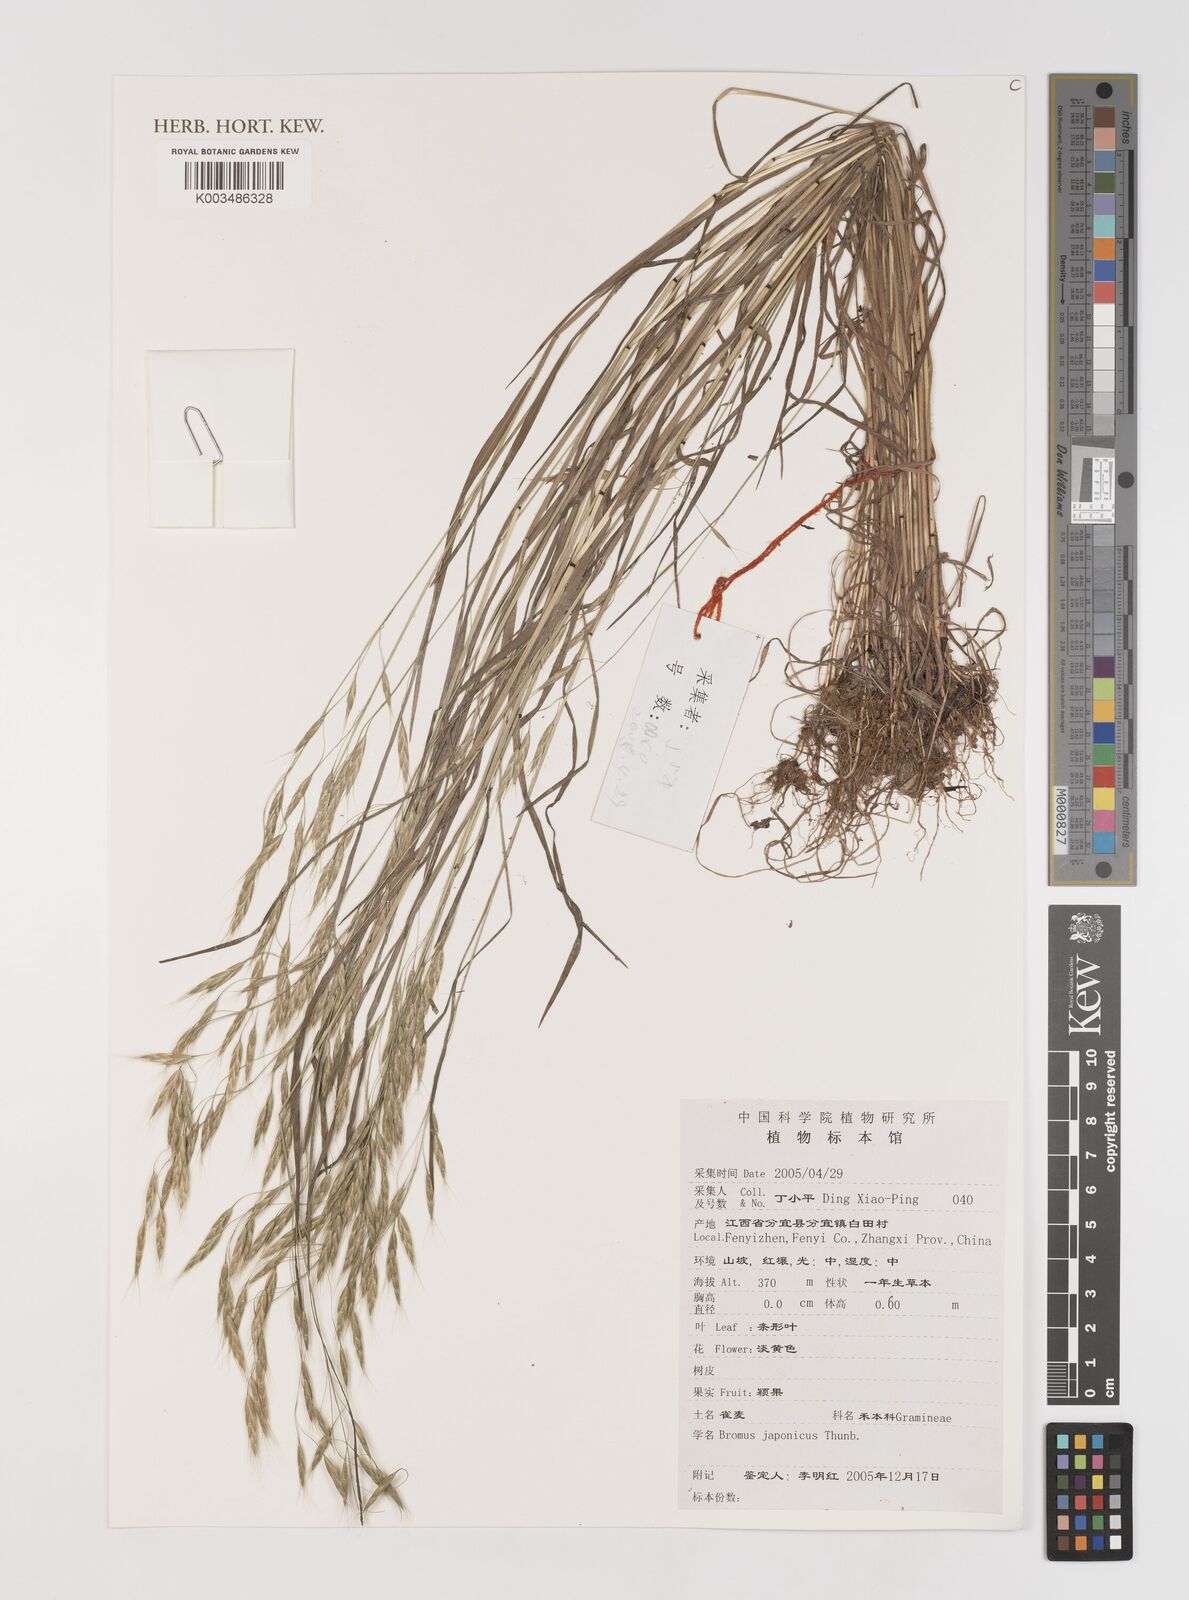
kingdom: Plantae
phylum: Tracheophyta
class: Liliopsida
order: Poales
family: Poaceae
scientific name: Poaceae
